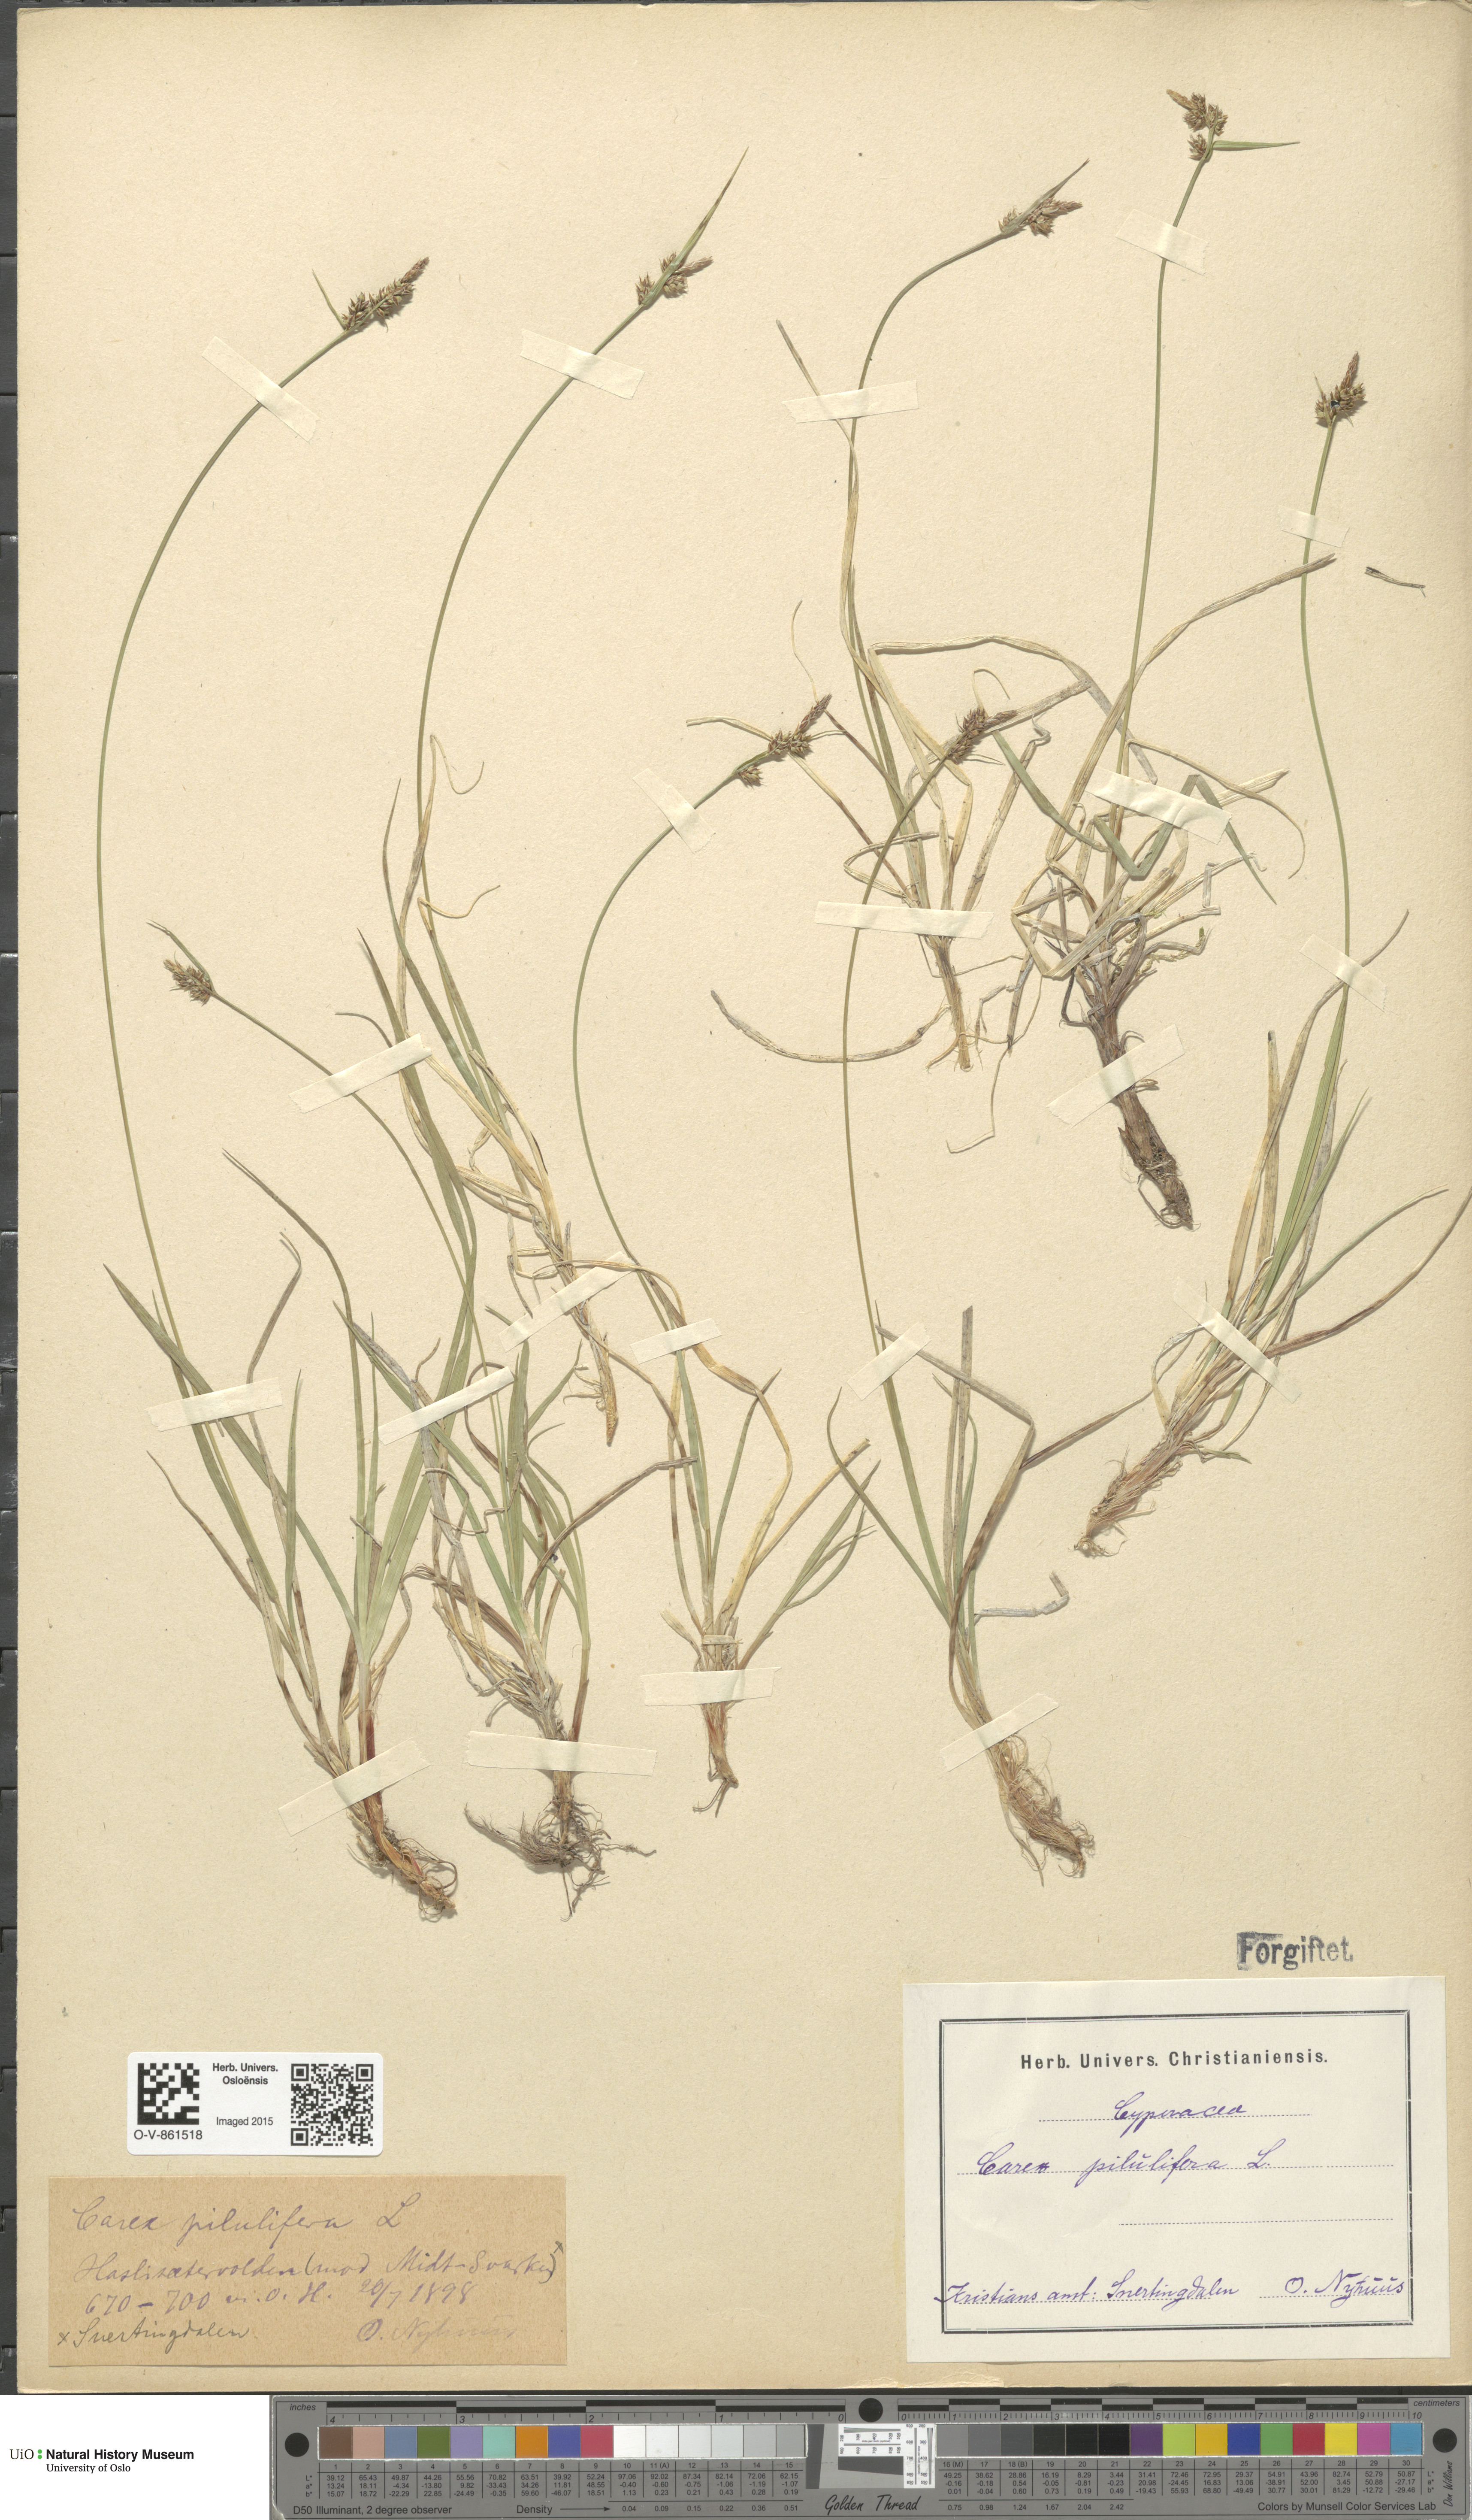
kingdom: Plantae
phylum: Tracheophyta
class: Liliopsida
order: Poales
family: Cyperaceae
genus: Carex
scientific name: Carex pilulifera
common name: Pill sedge
